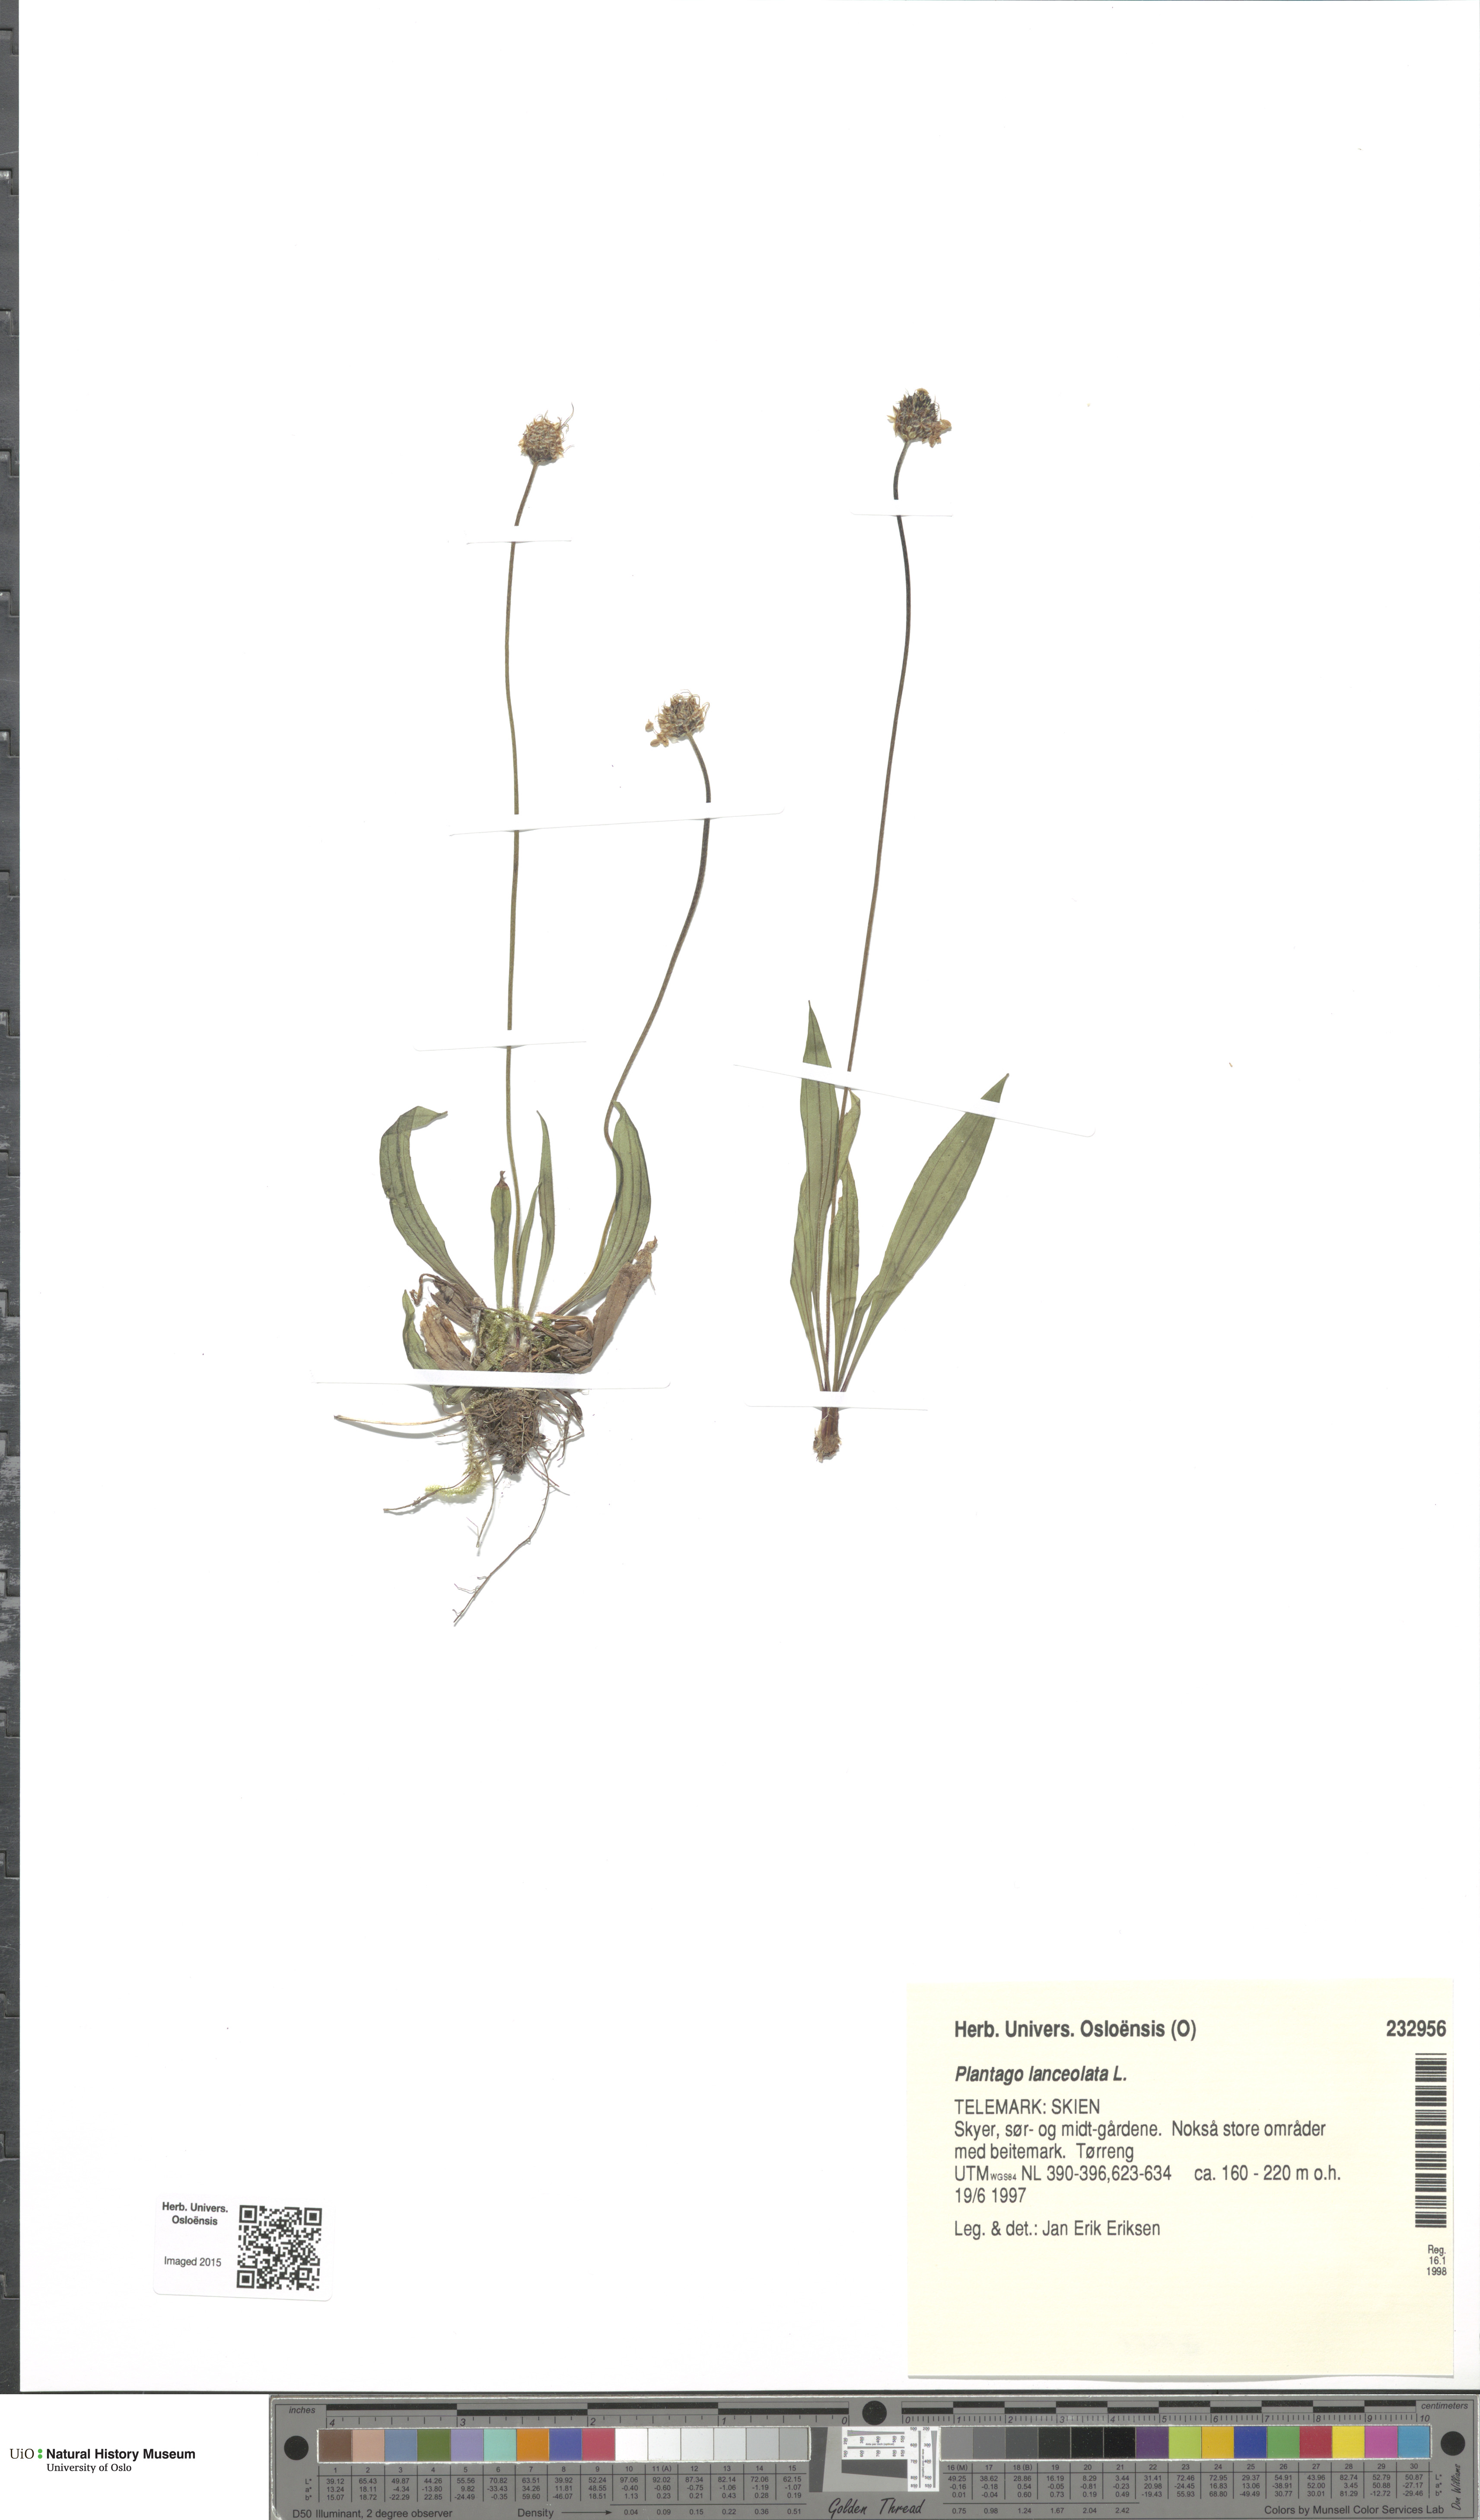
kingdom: Plantae
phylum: Tracheophyta
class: Magnoliopsida
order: Lamiales
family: Plantaginaceae
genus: Plantago
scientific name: Plantago lanceolata
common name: Ribwort plantain
